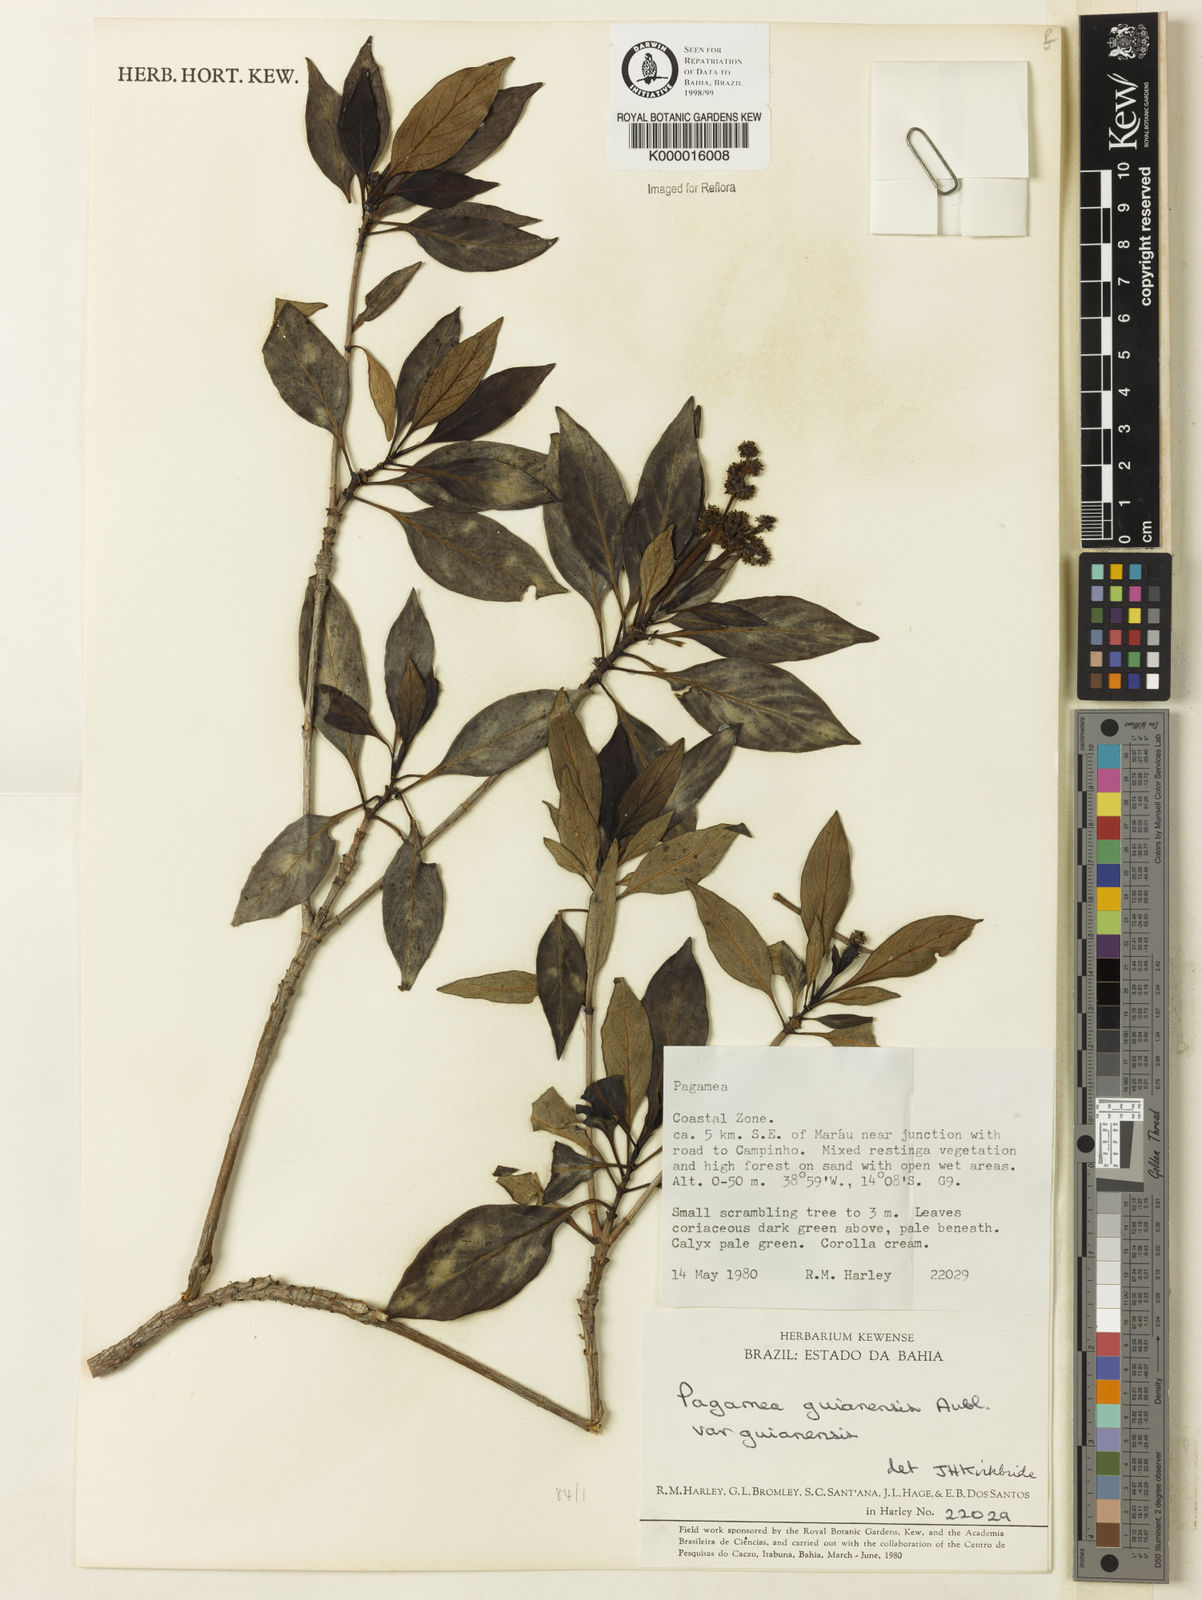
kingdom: Plantae
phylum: Tracheophyta
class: Magnoliopsida
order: Gentianales
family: Rubiaceae
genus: Pagamea
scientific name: Pagamea guianensis
